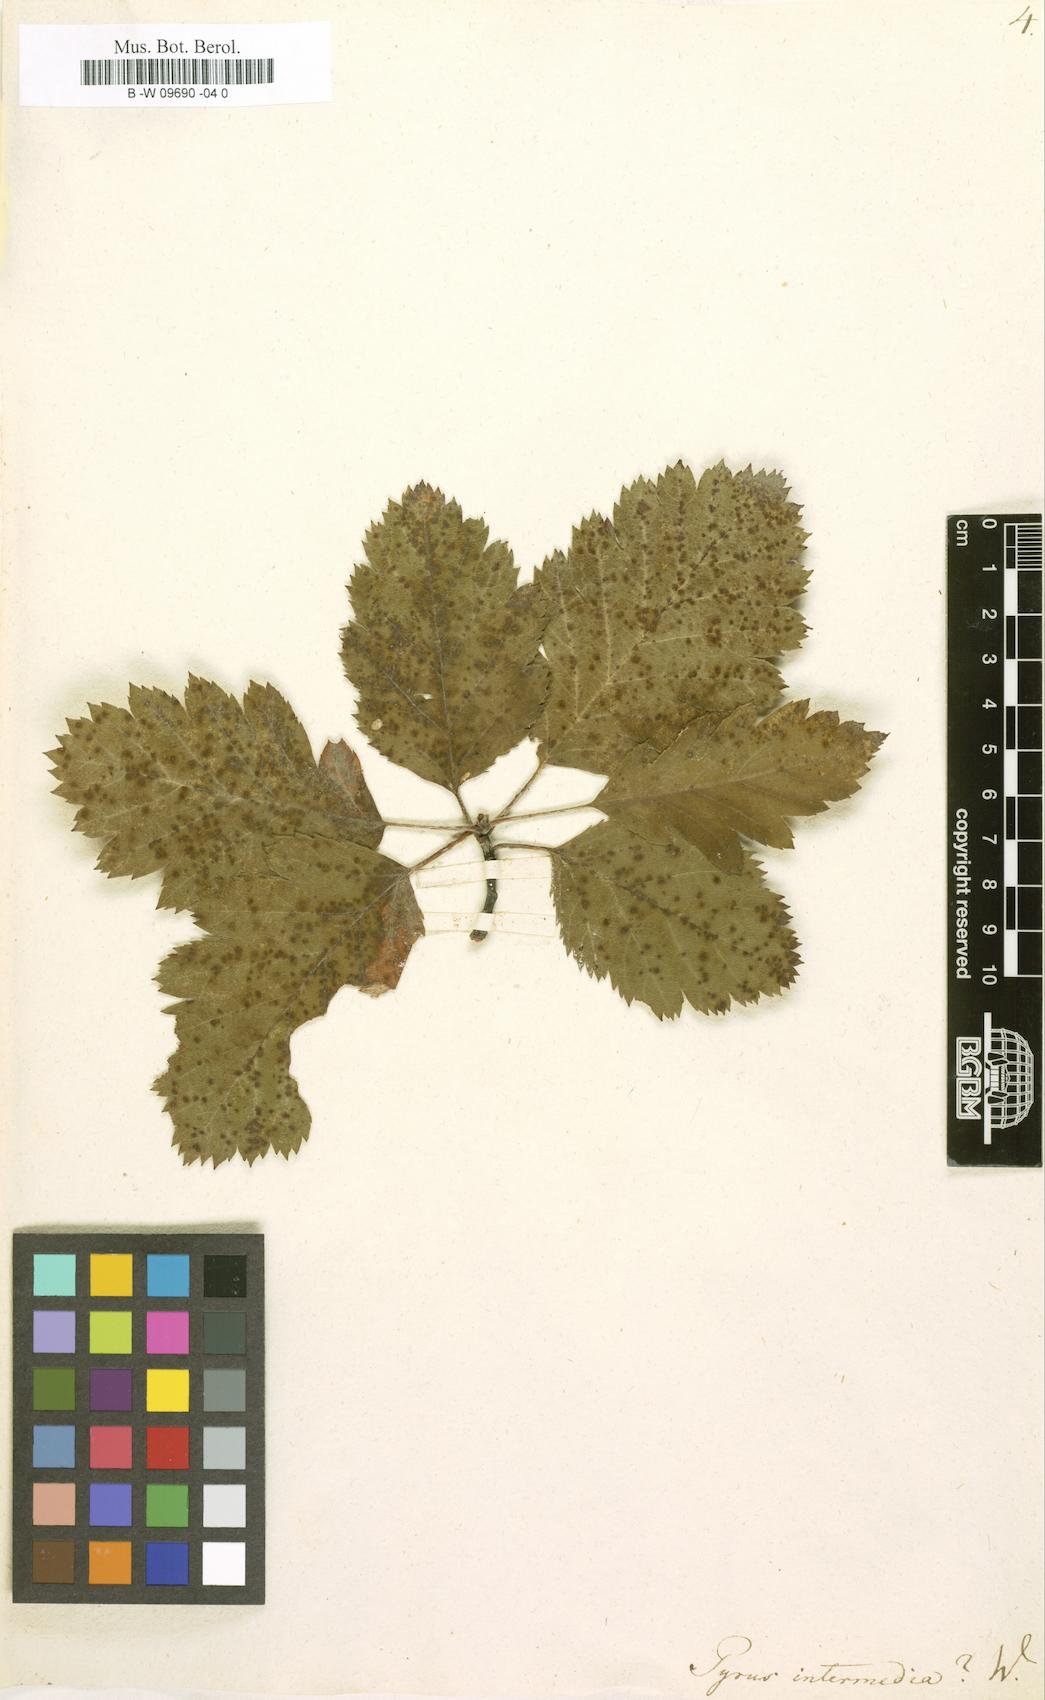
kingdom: Plantae
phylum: Tracheophyta
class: Magnoliopsida
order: Rosales
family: Rosaceae
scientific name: Rosaceae
